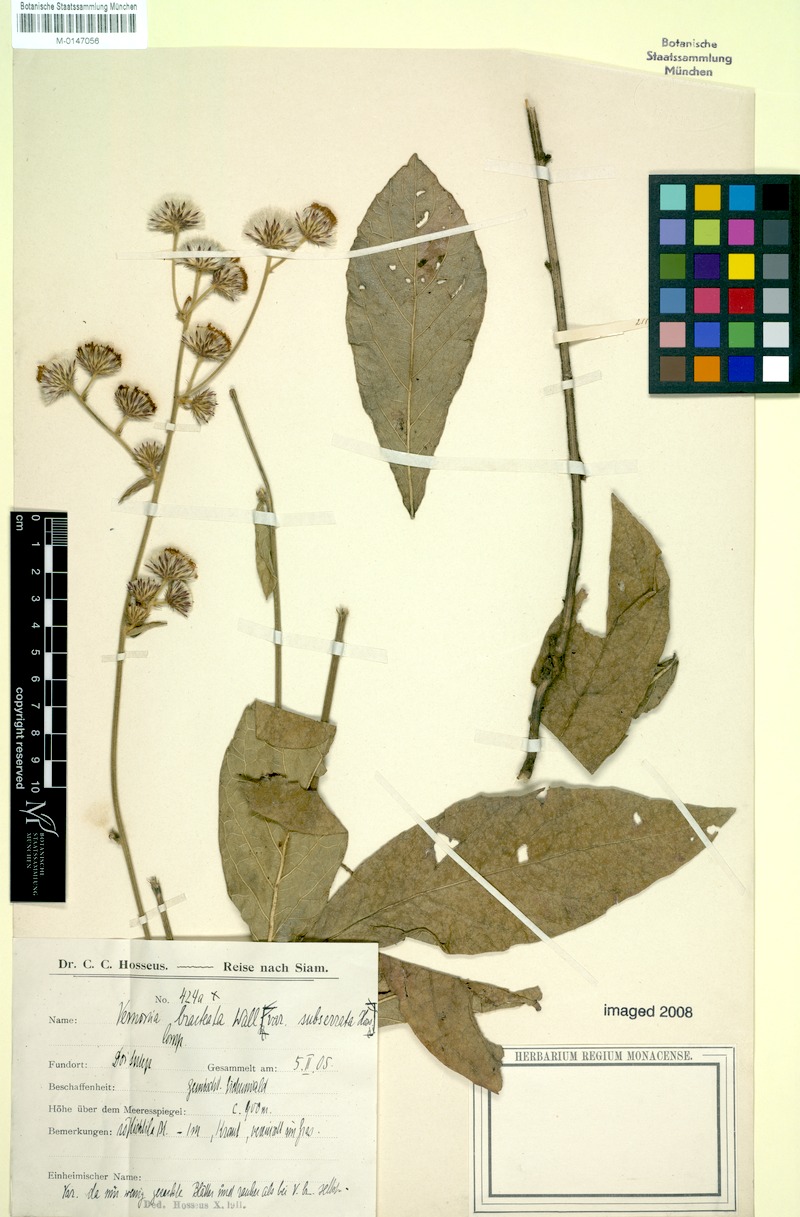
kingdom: Plantae
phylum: Tracheophyta
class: Magnoliopsida
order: Asterales
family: Asteraceae
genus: Acilepis
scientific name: Acilepis silhetensis
